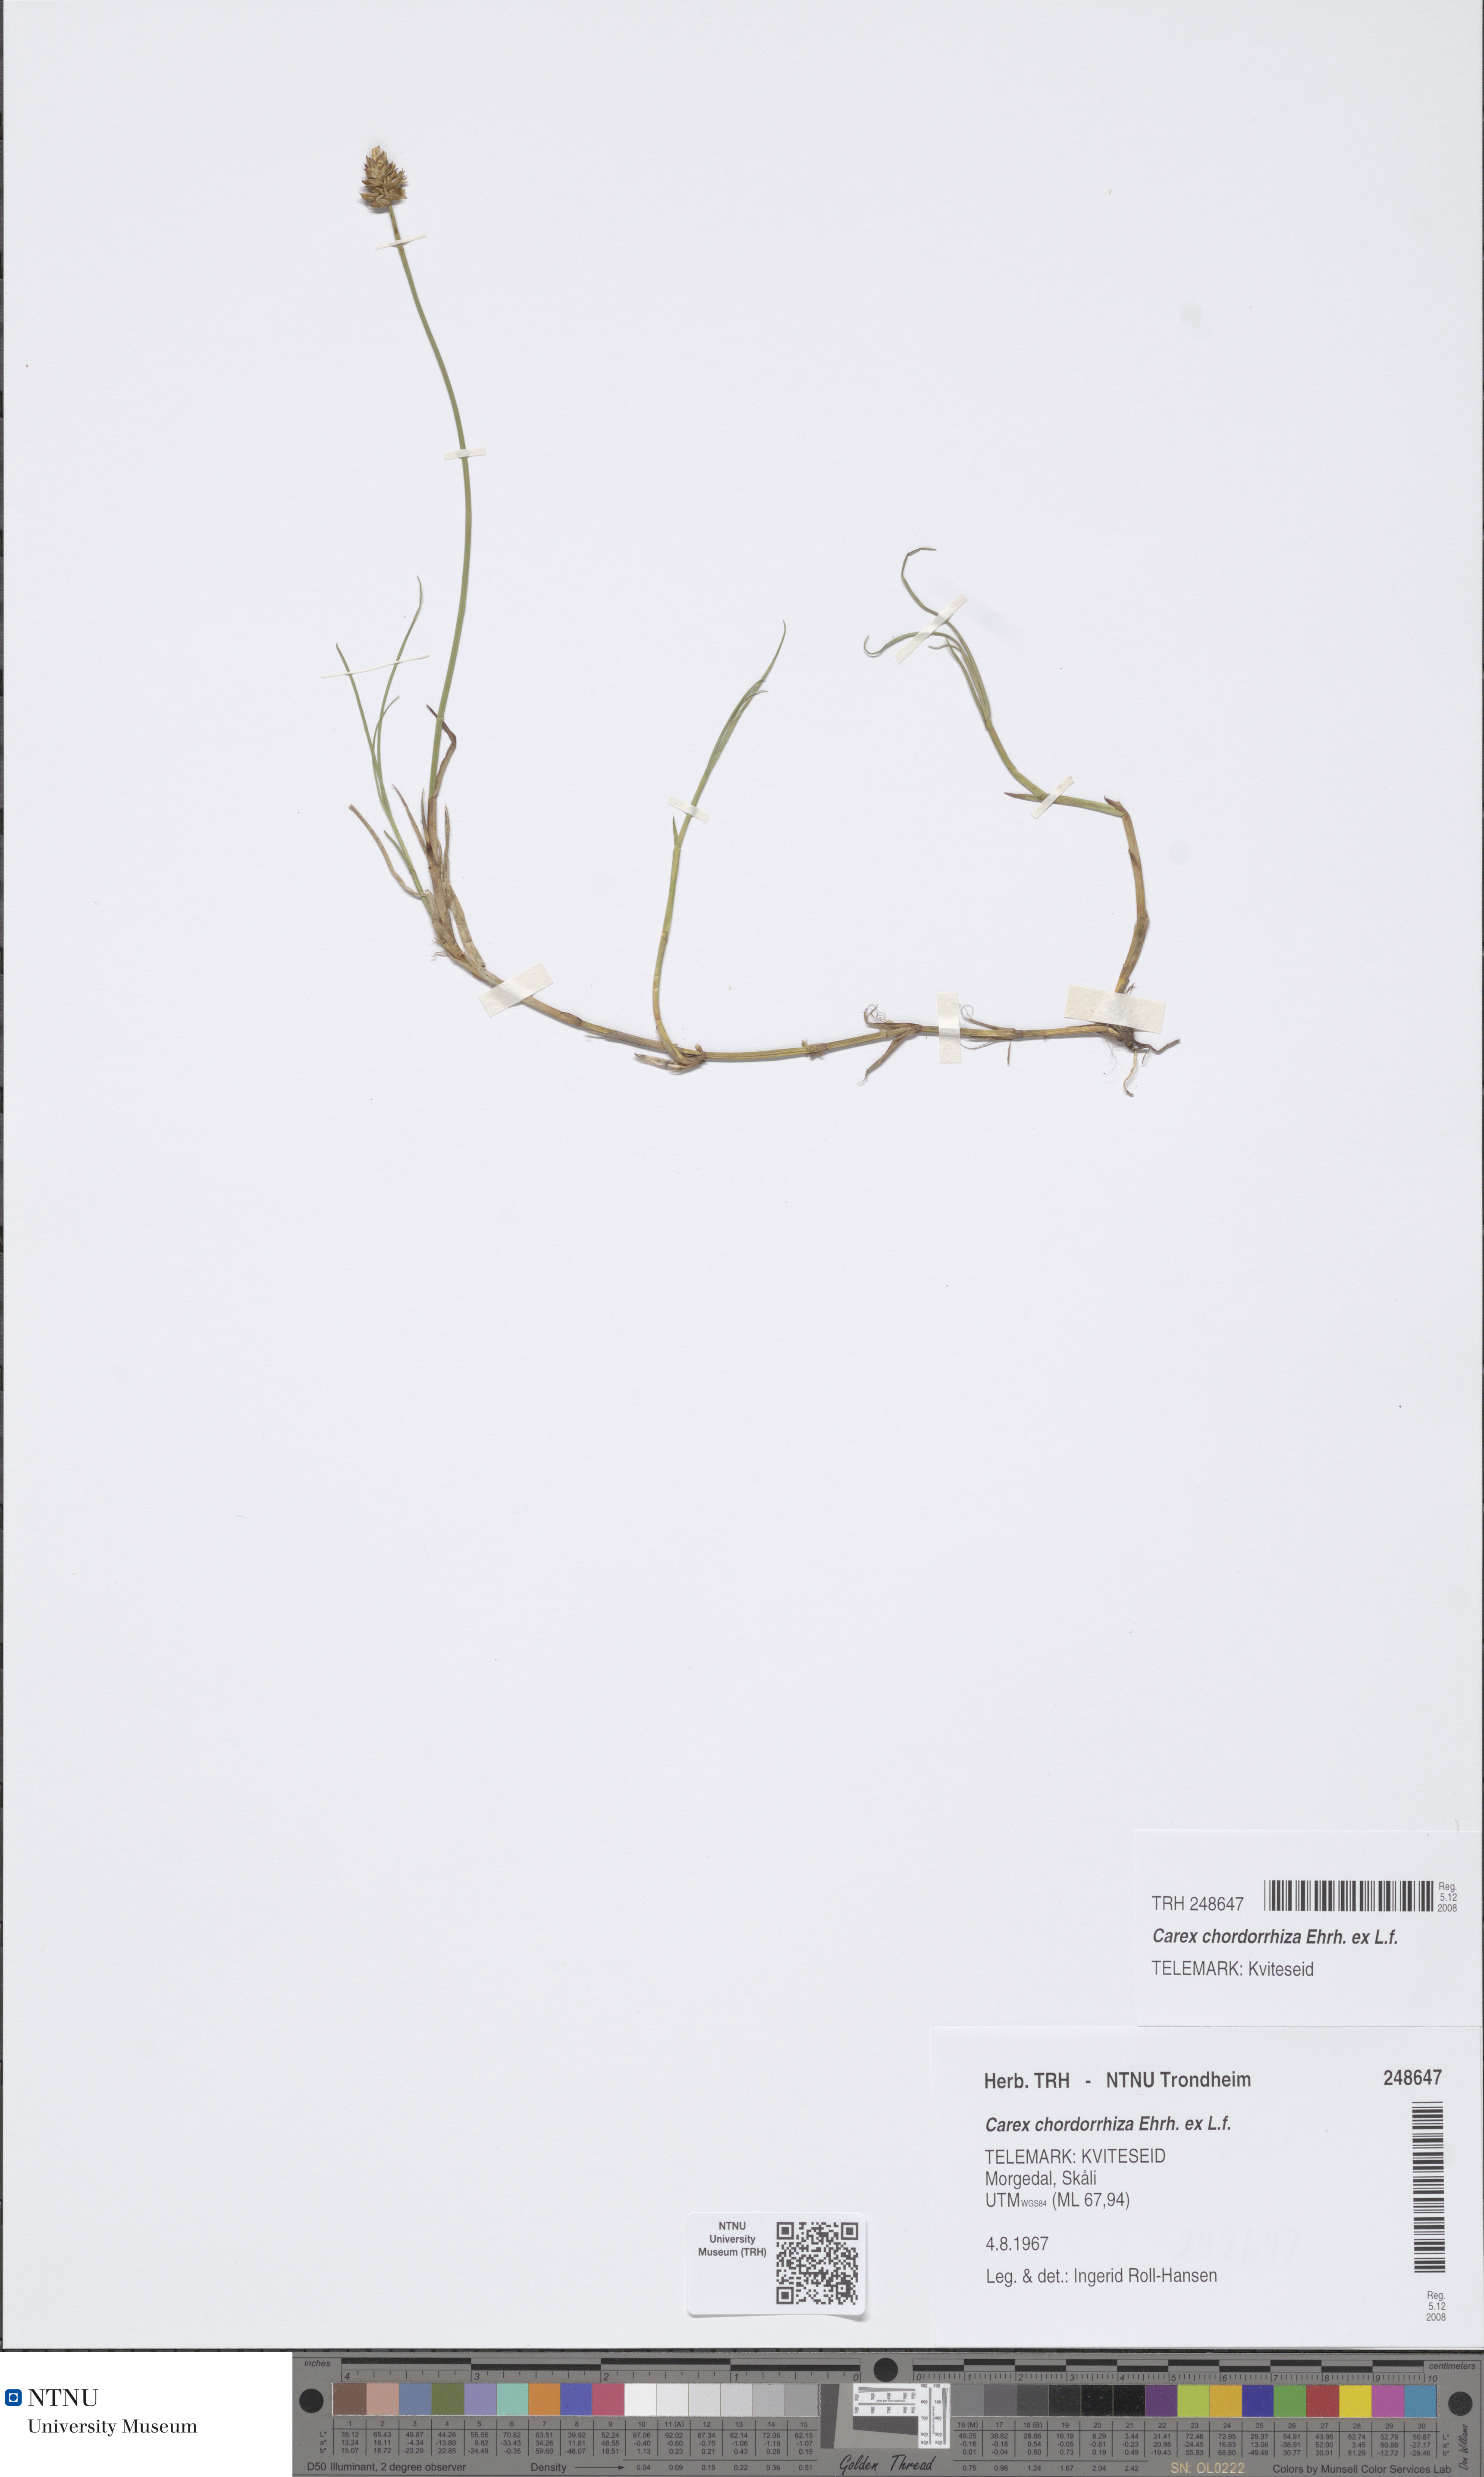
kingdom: Plantae
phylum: Tracheophyta
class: Liliopsida
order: Poales
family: Cyperaceae
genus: Carex
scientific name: Carex chordorrhiza
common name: String sedge
